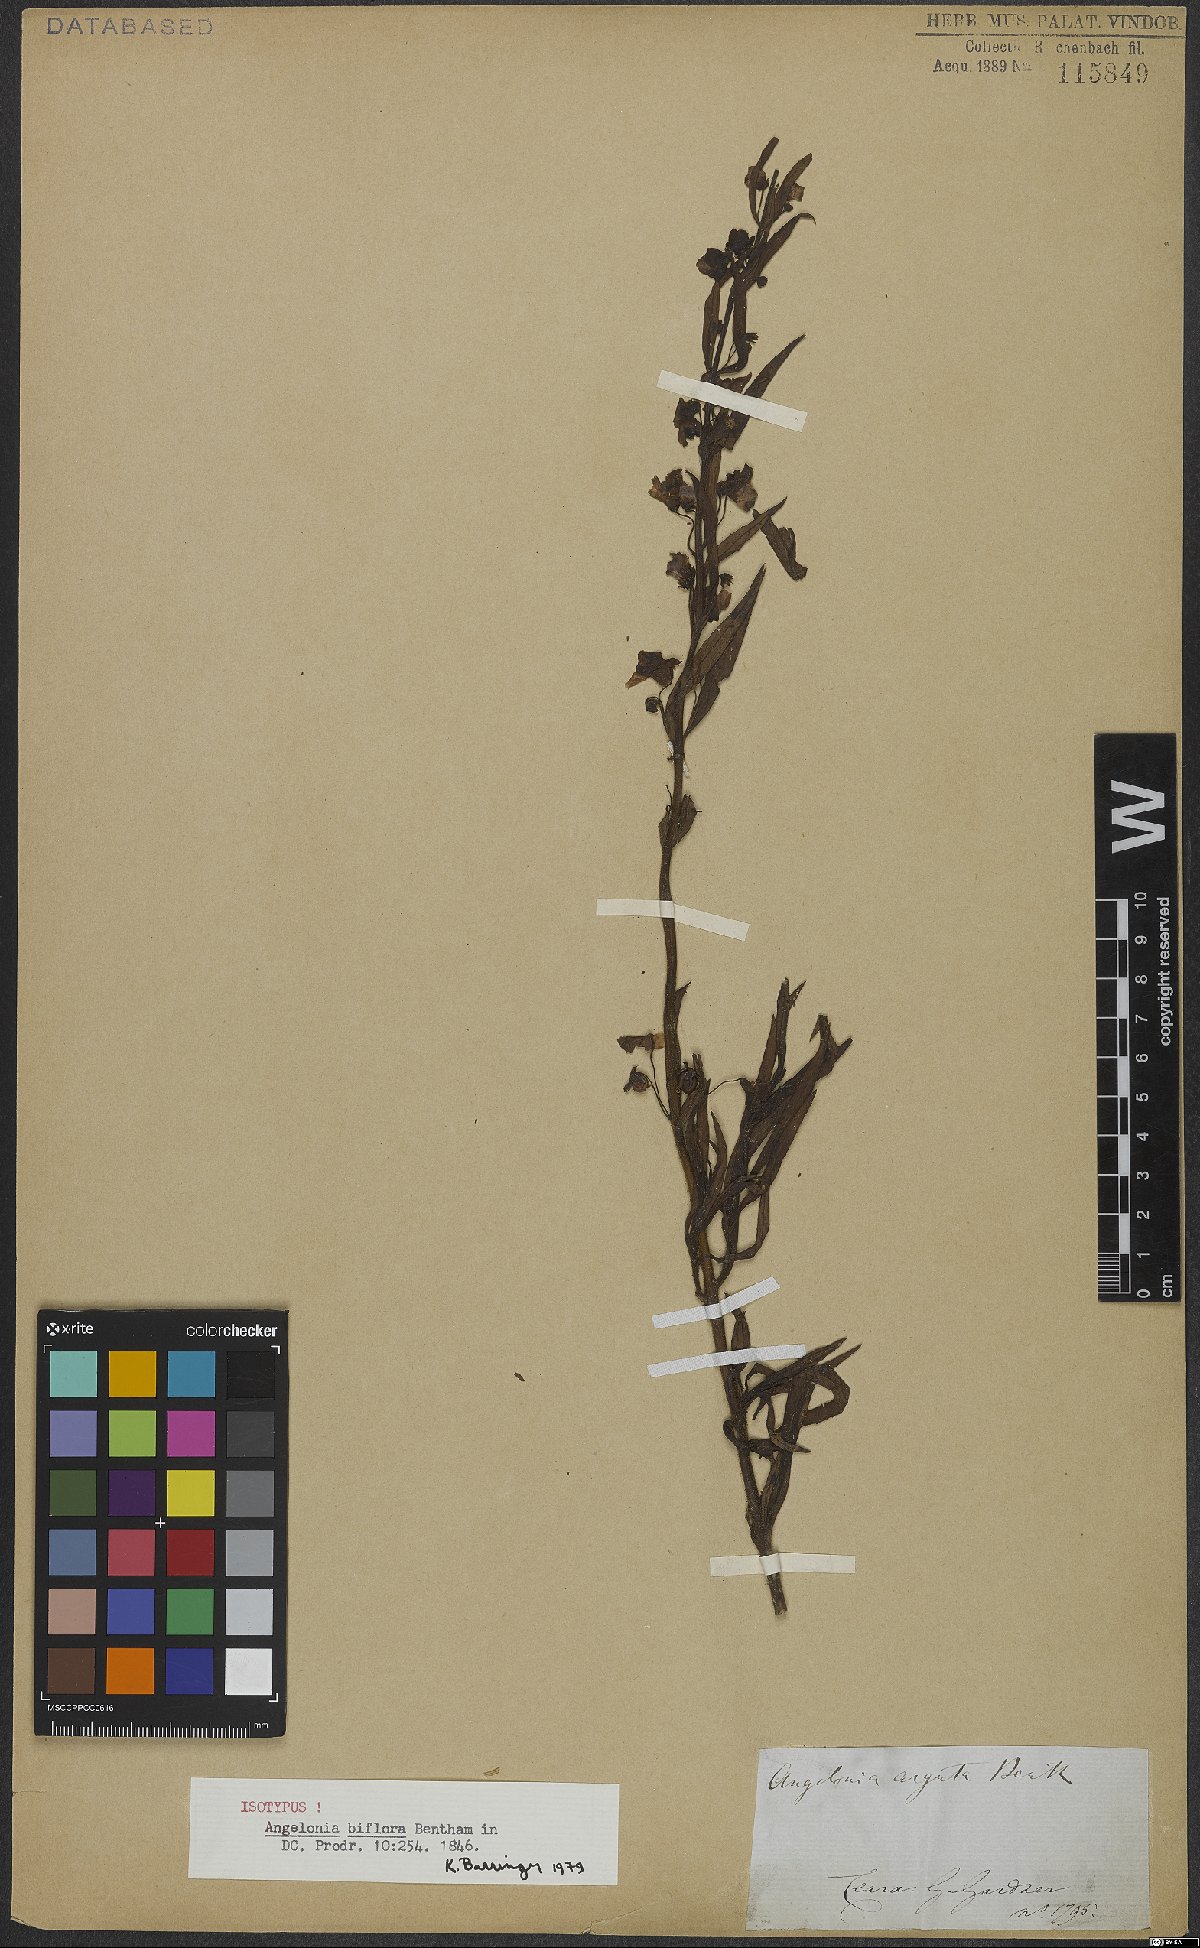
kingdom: Plantae
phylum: Tracheophyta
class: Magnoliopsida
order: Lamiales
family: Plantaginaceae
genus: Angelonia
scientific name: Angelonia biflora
